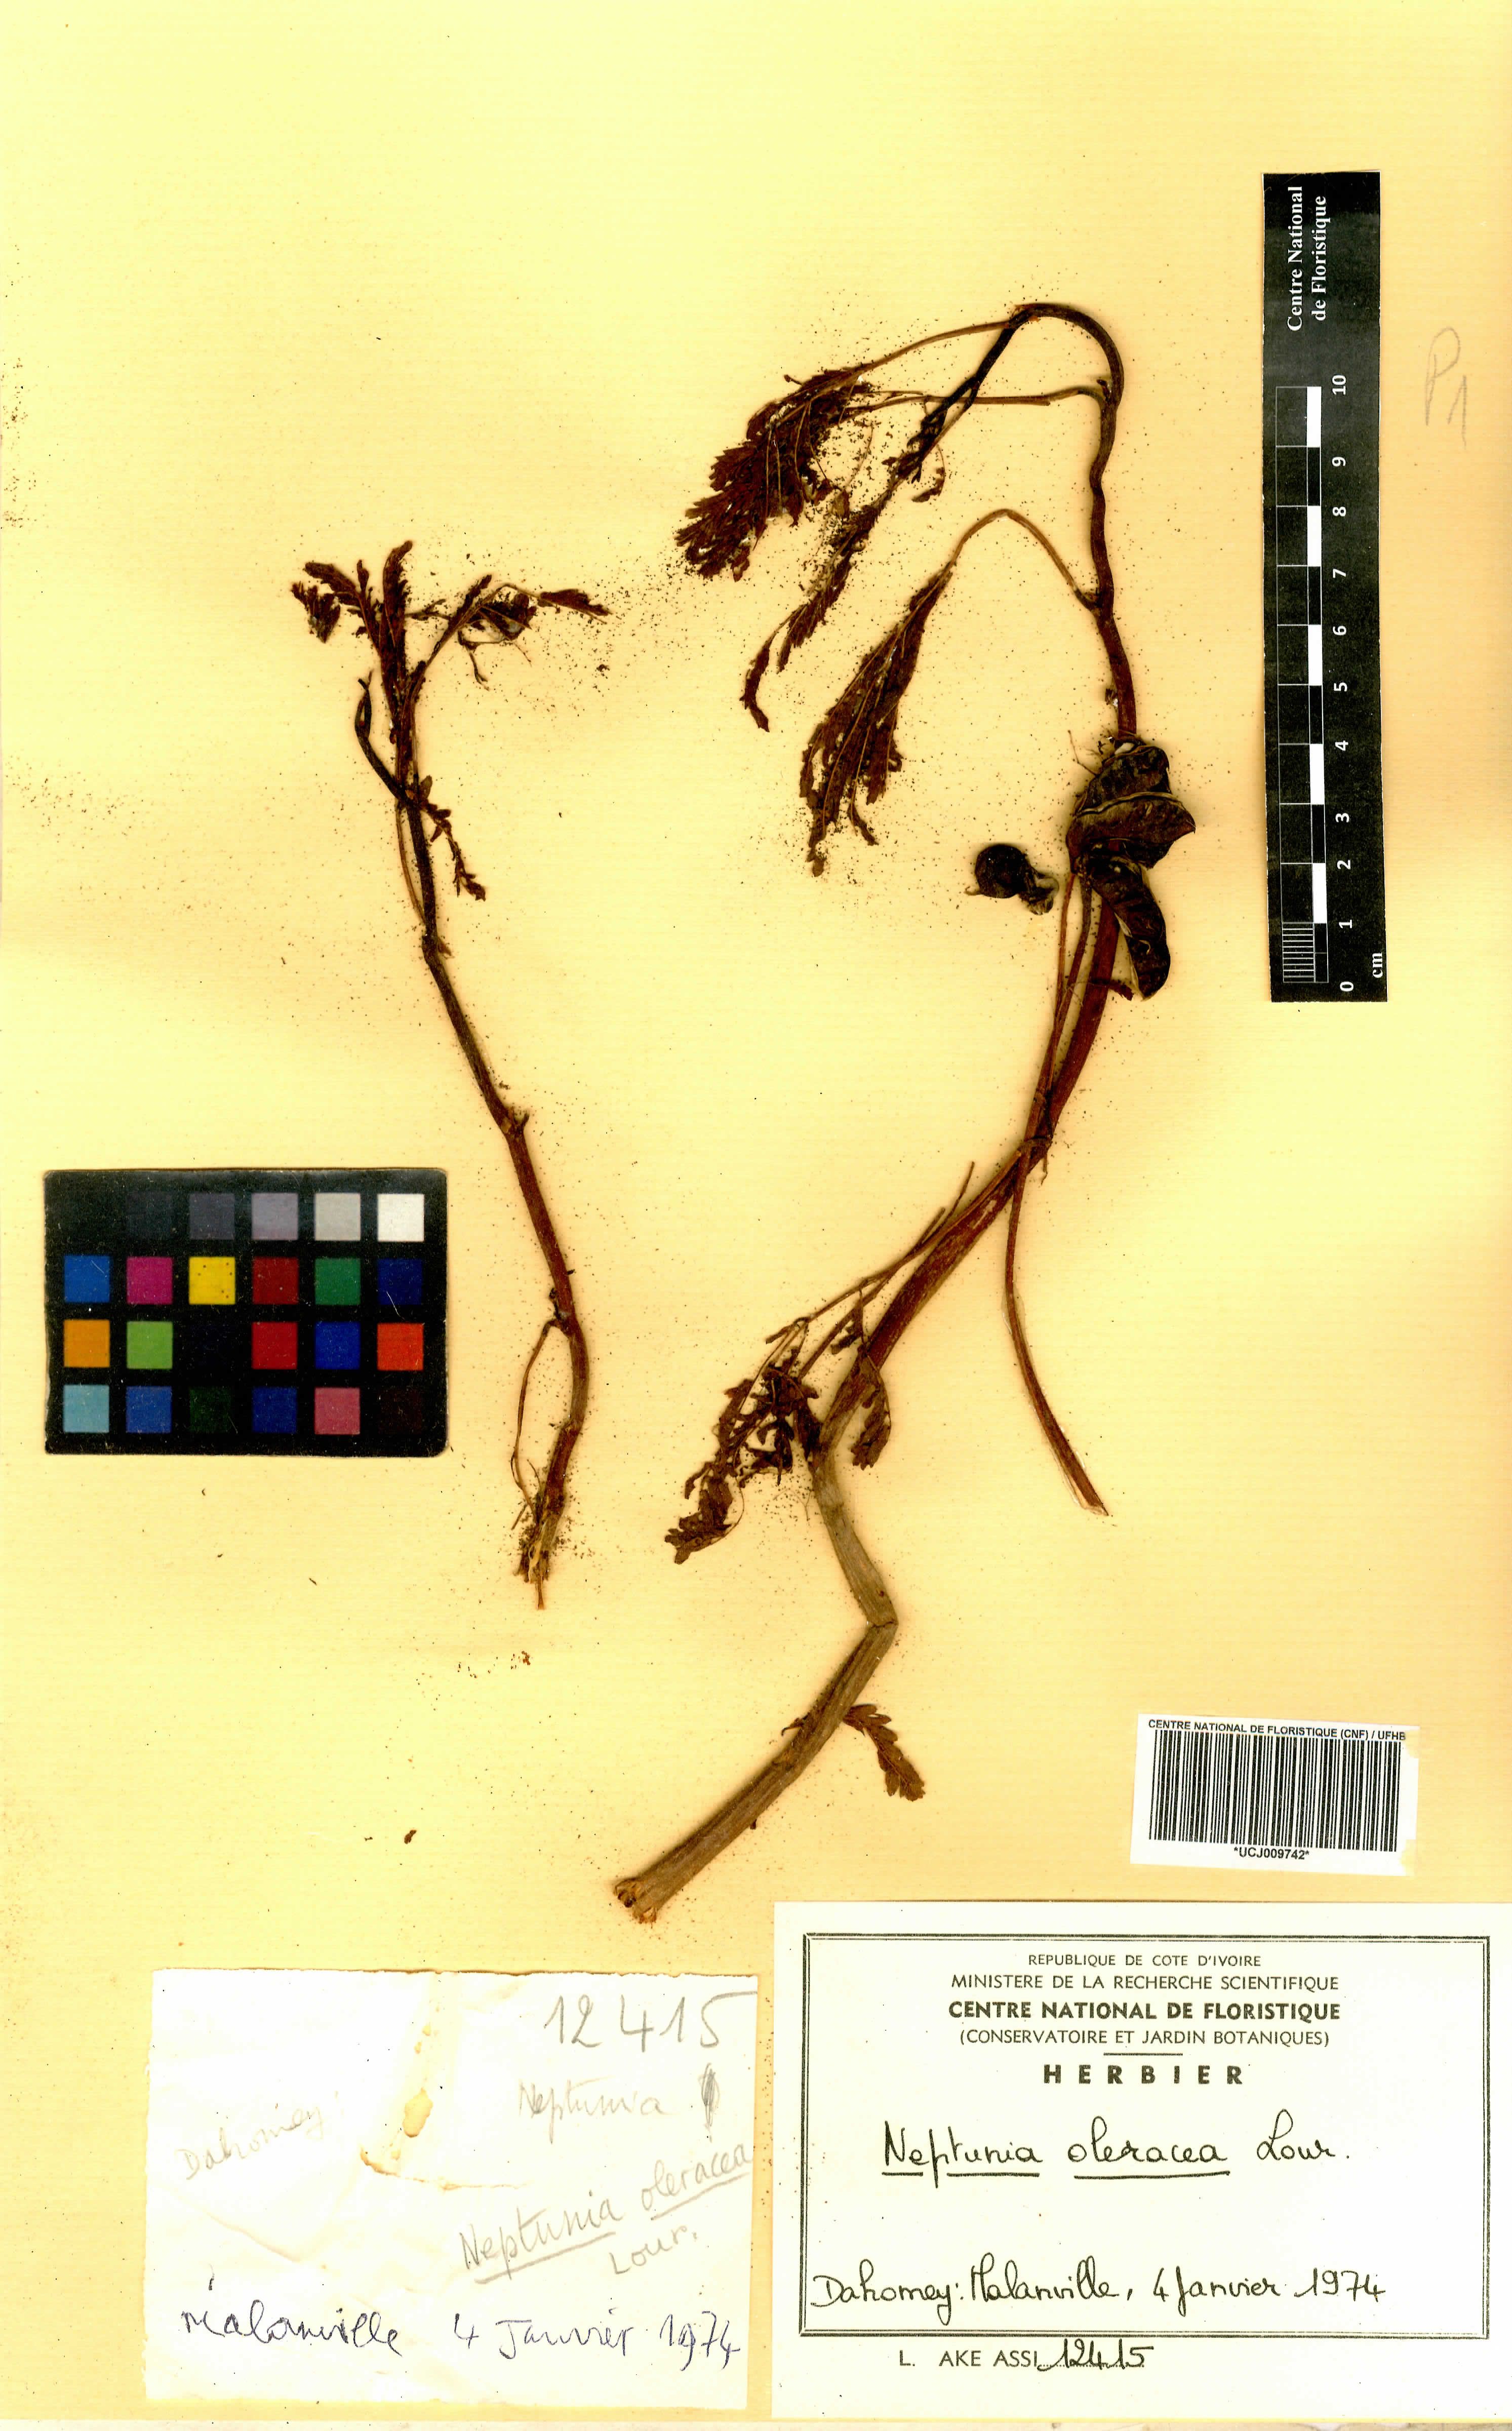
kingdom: Plantae
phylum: Tracheophyta
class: Magnoliopsida
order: Fabales
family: Fabaceae
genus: Neptunia
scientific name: Neptunia prostrata
